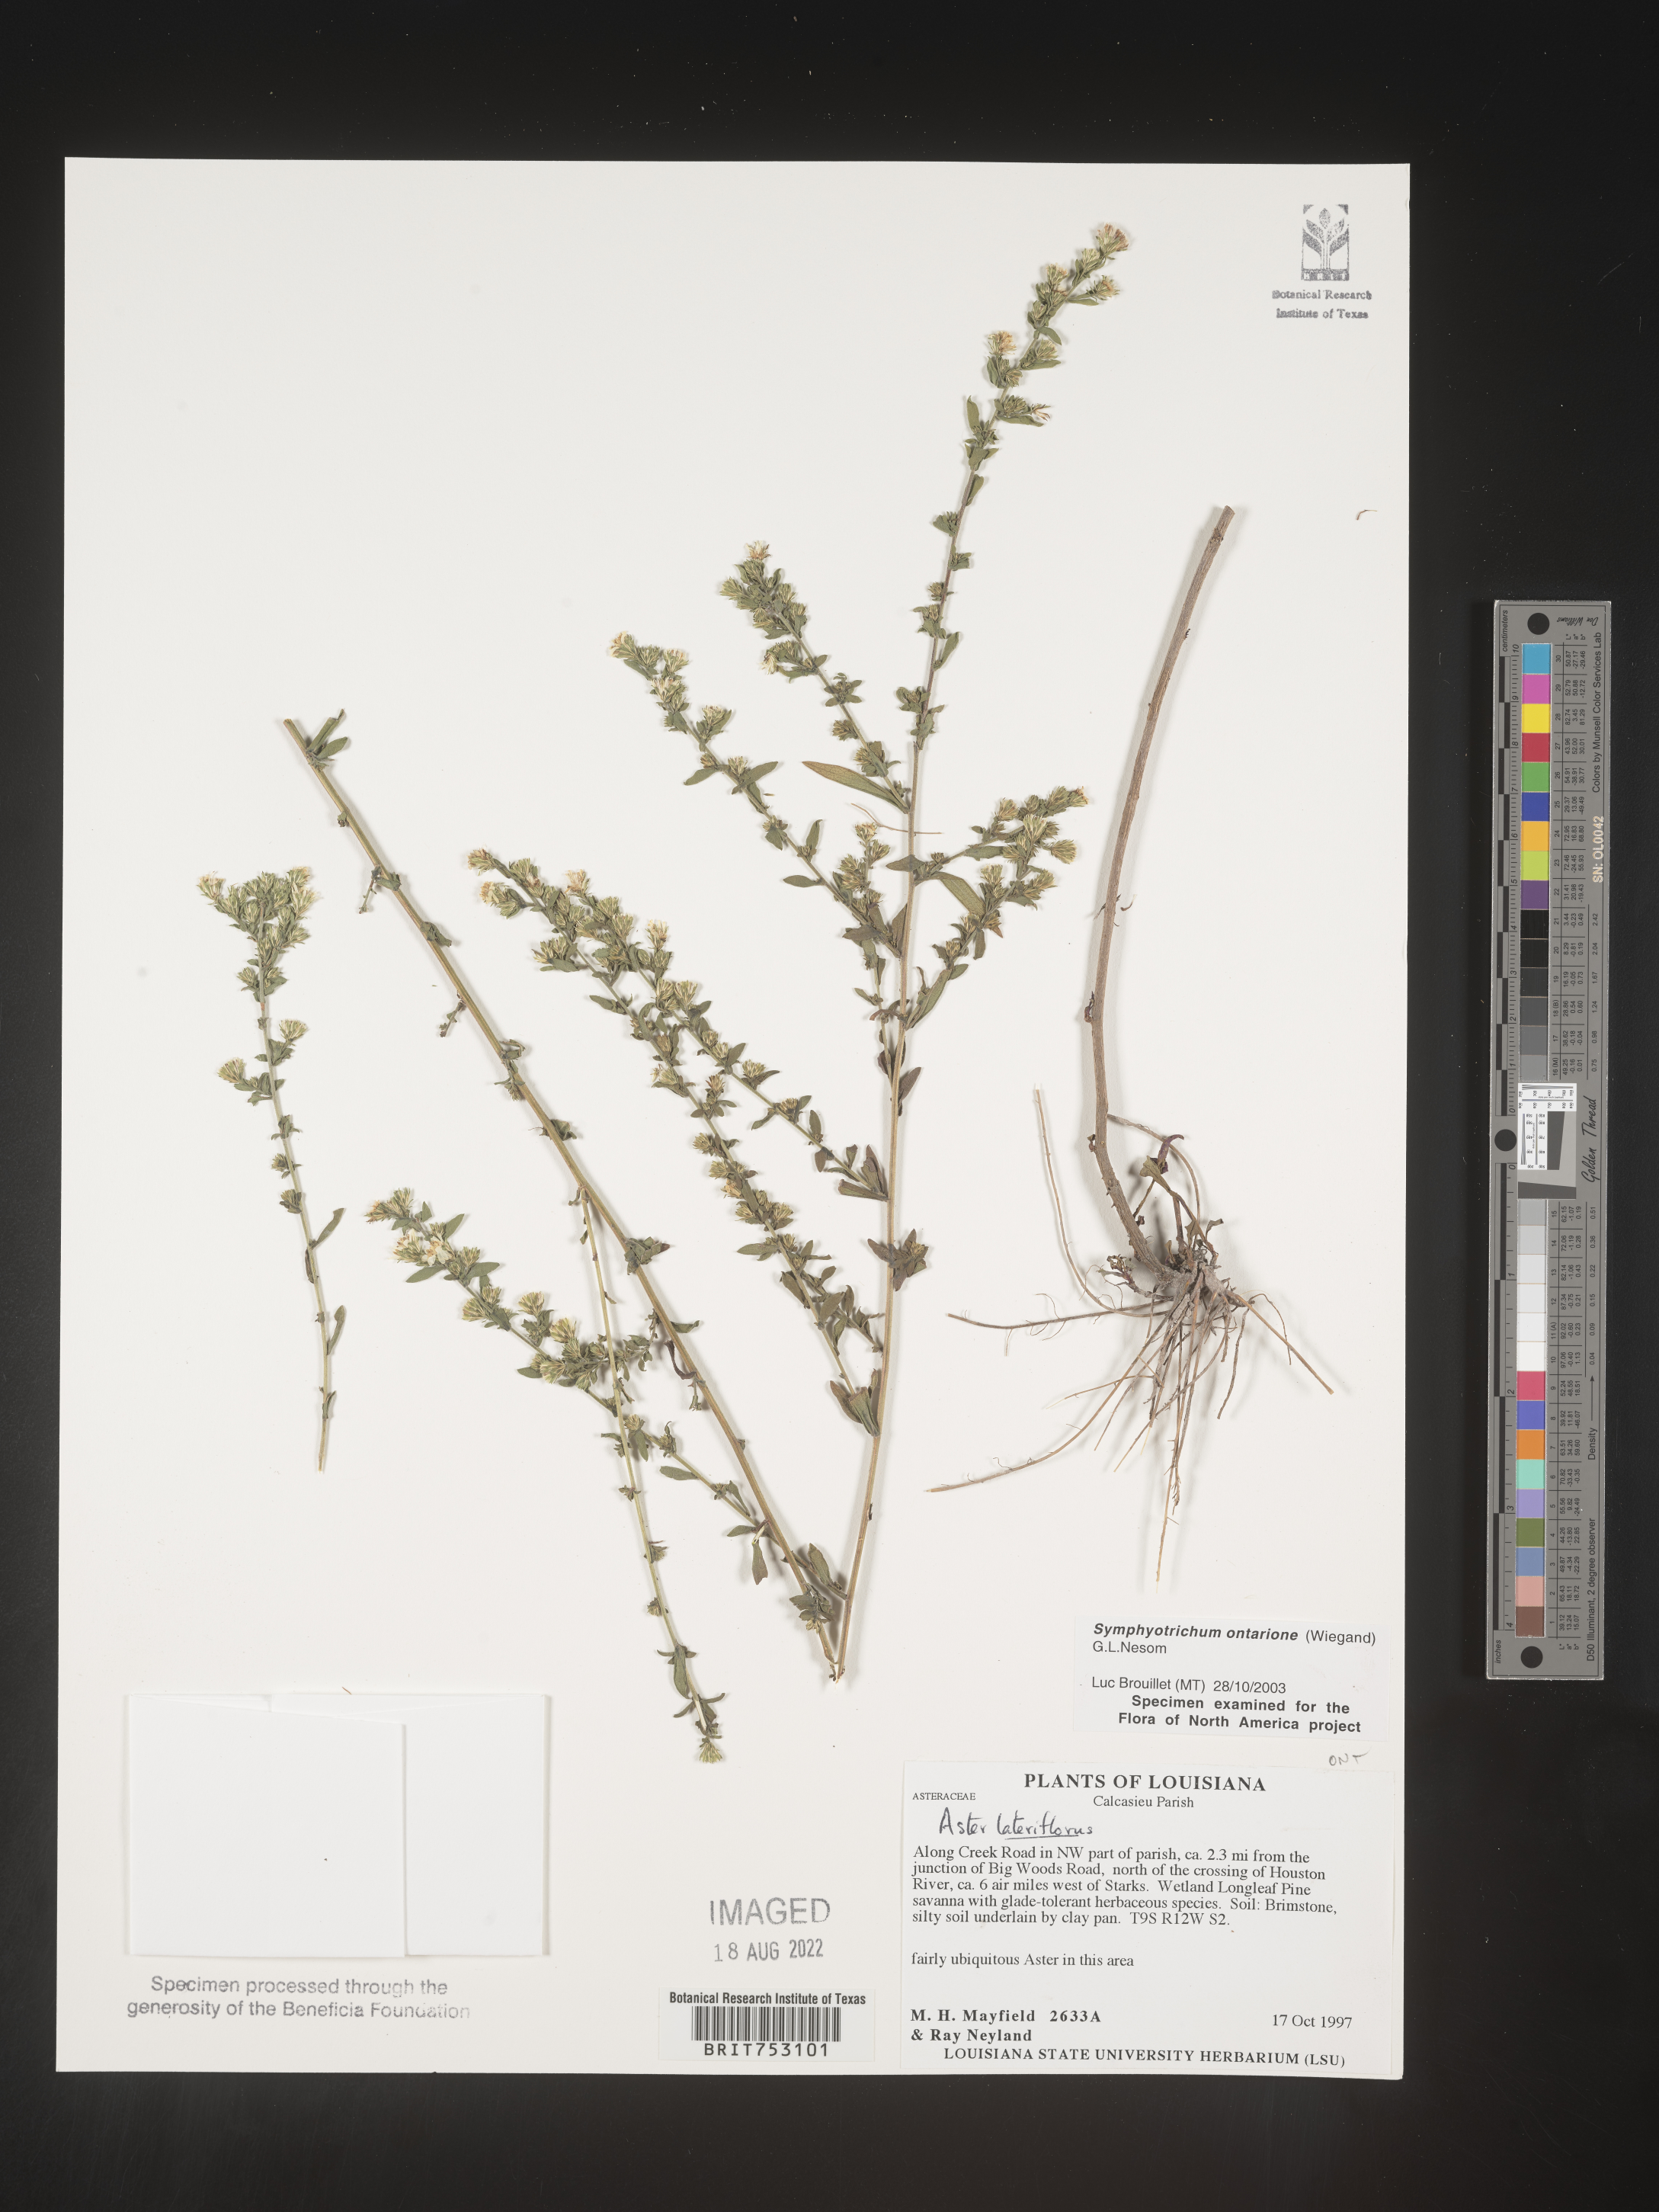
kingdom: Plantae
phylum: Tracheophyta
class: Magnoliopsida
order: Asterales
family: Asteraceae
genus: Symphyotrichum
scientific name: Symphyotrichum ontarionis
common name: Bottomland aster
